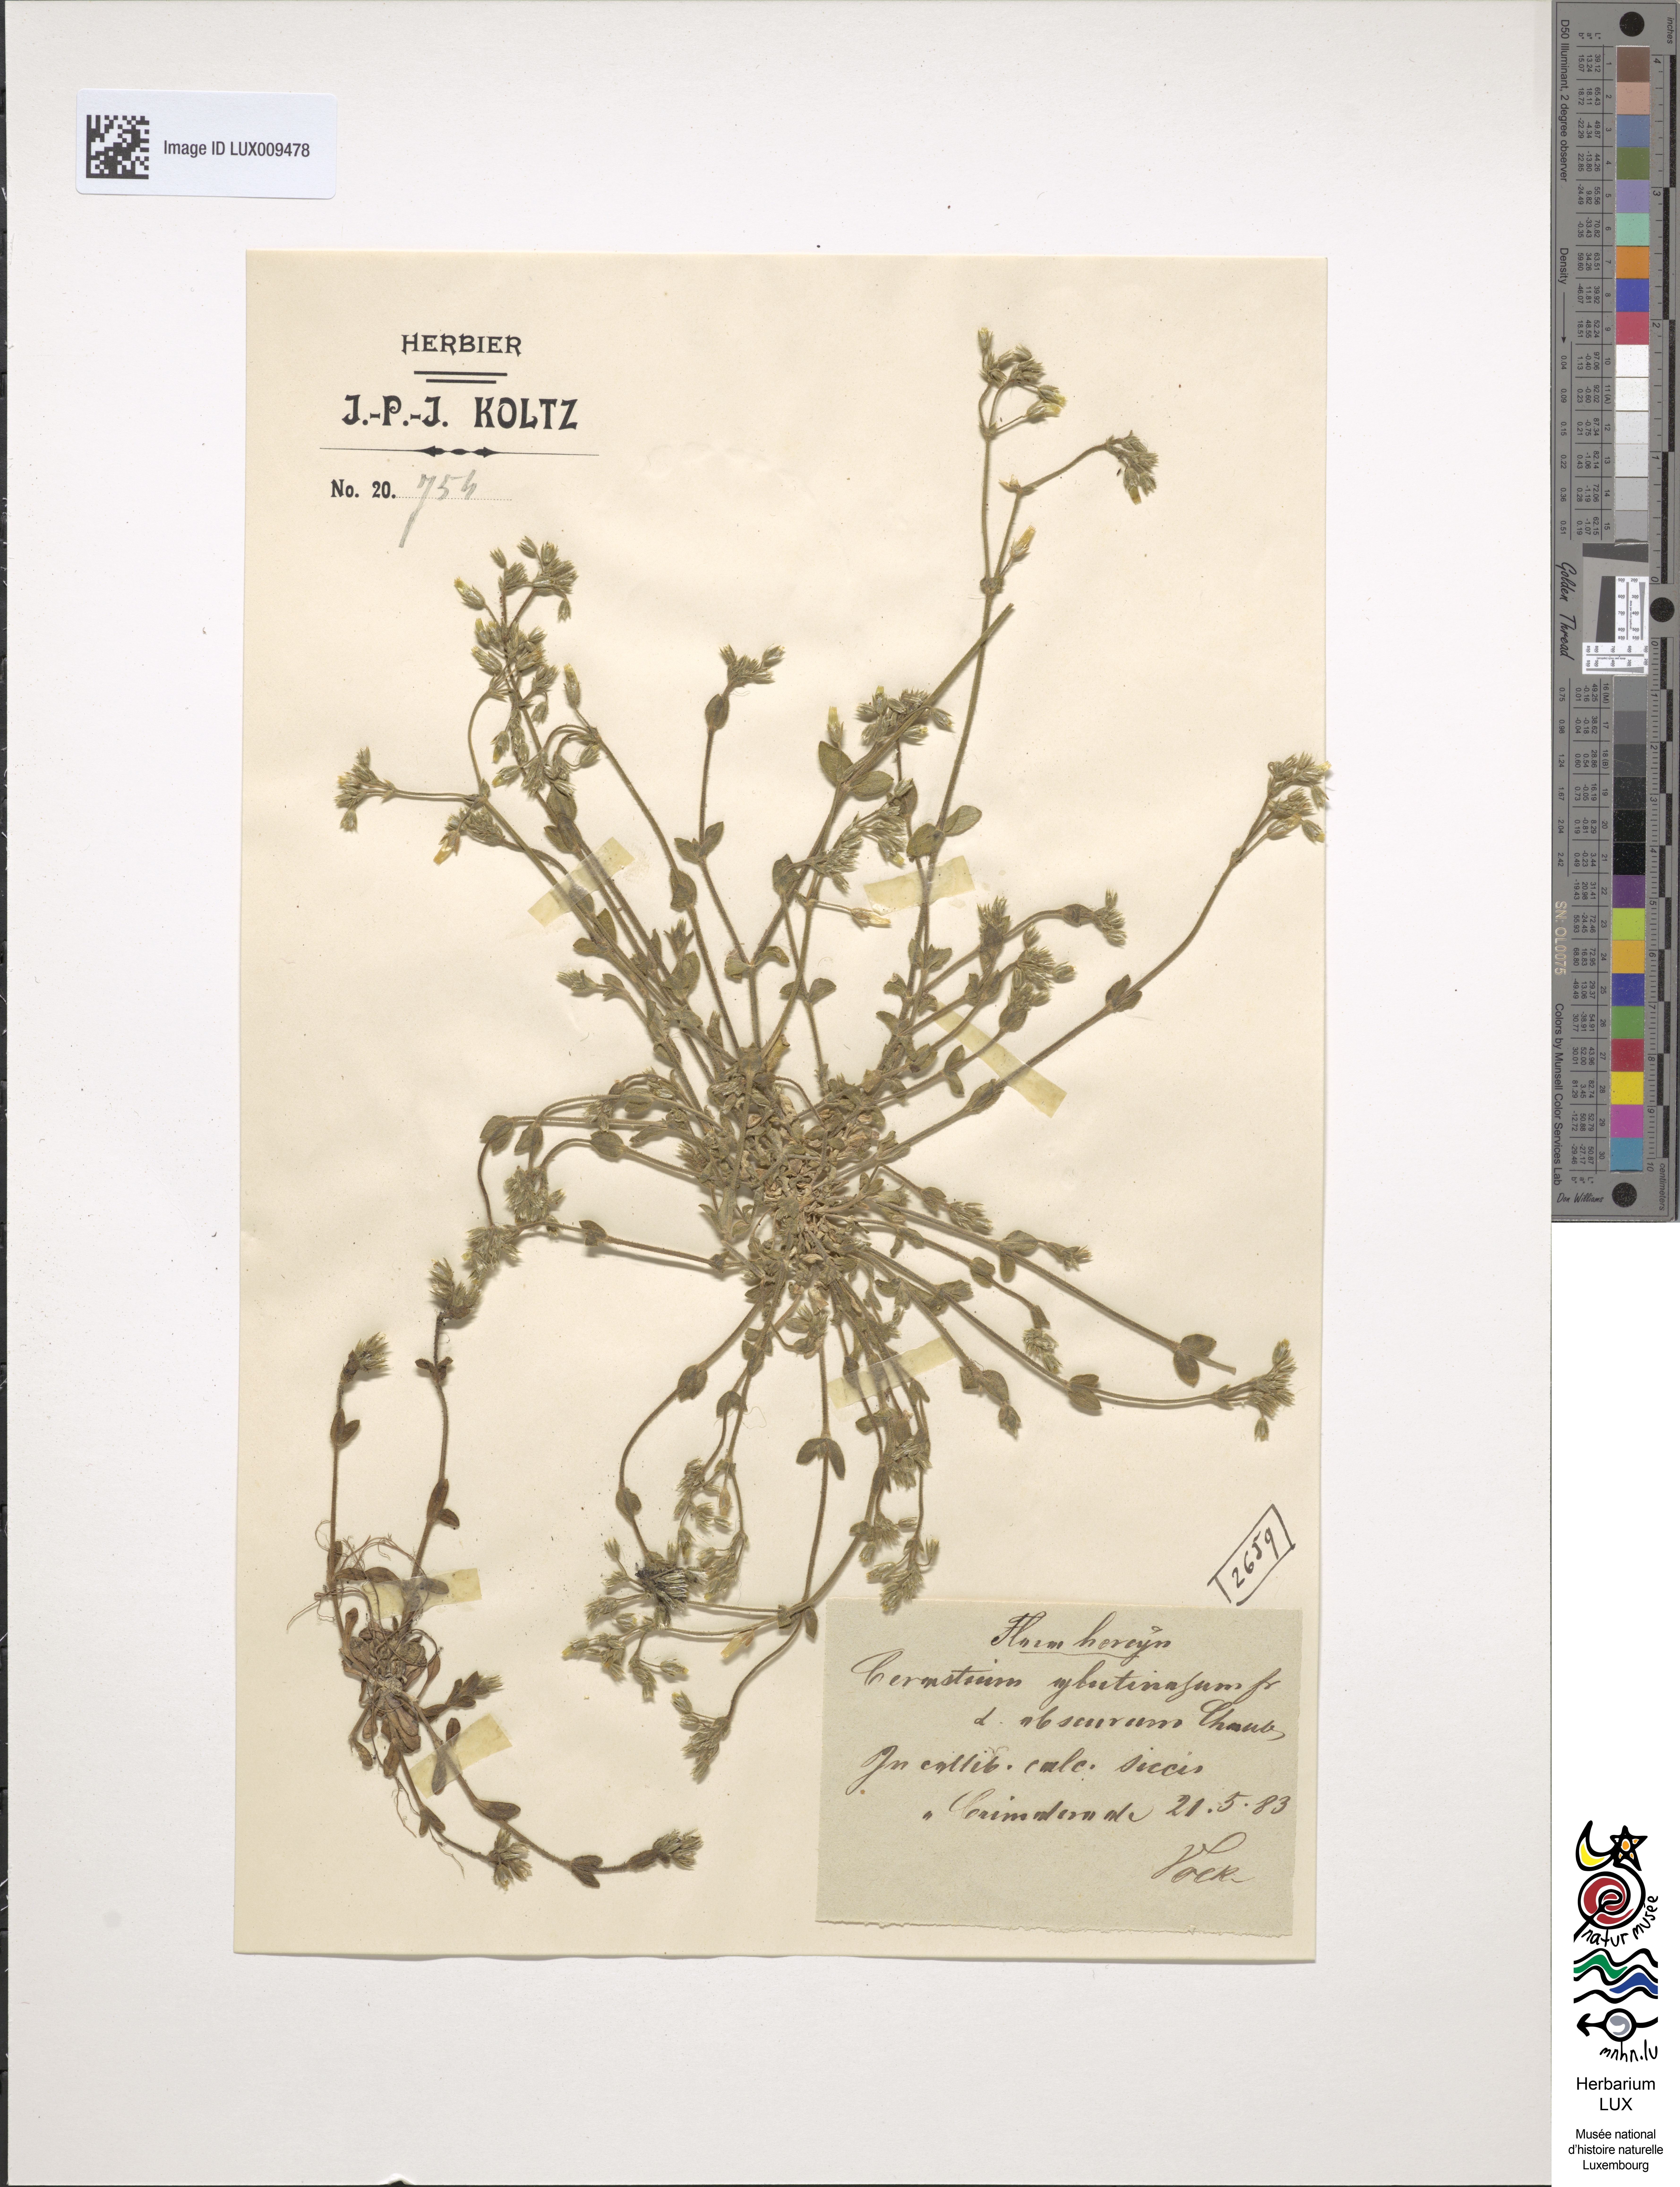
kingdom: Plantae
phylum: Tracheophyta
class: Magnoliopsida
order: Caryophyllales
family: Caryophyllaceae
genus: Cerastium
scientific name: Cerastium glutinosum
